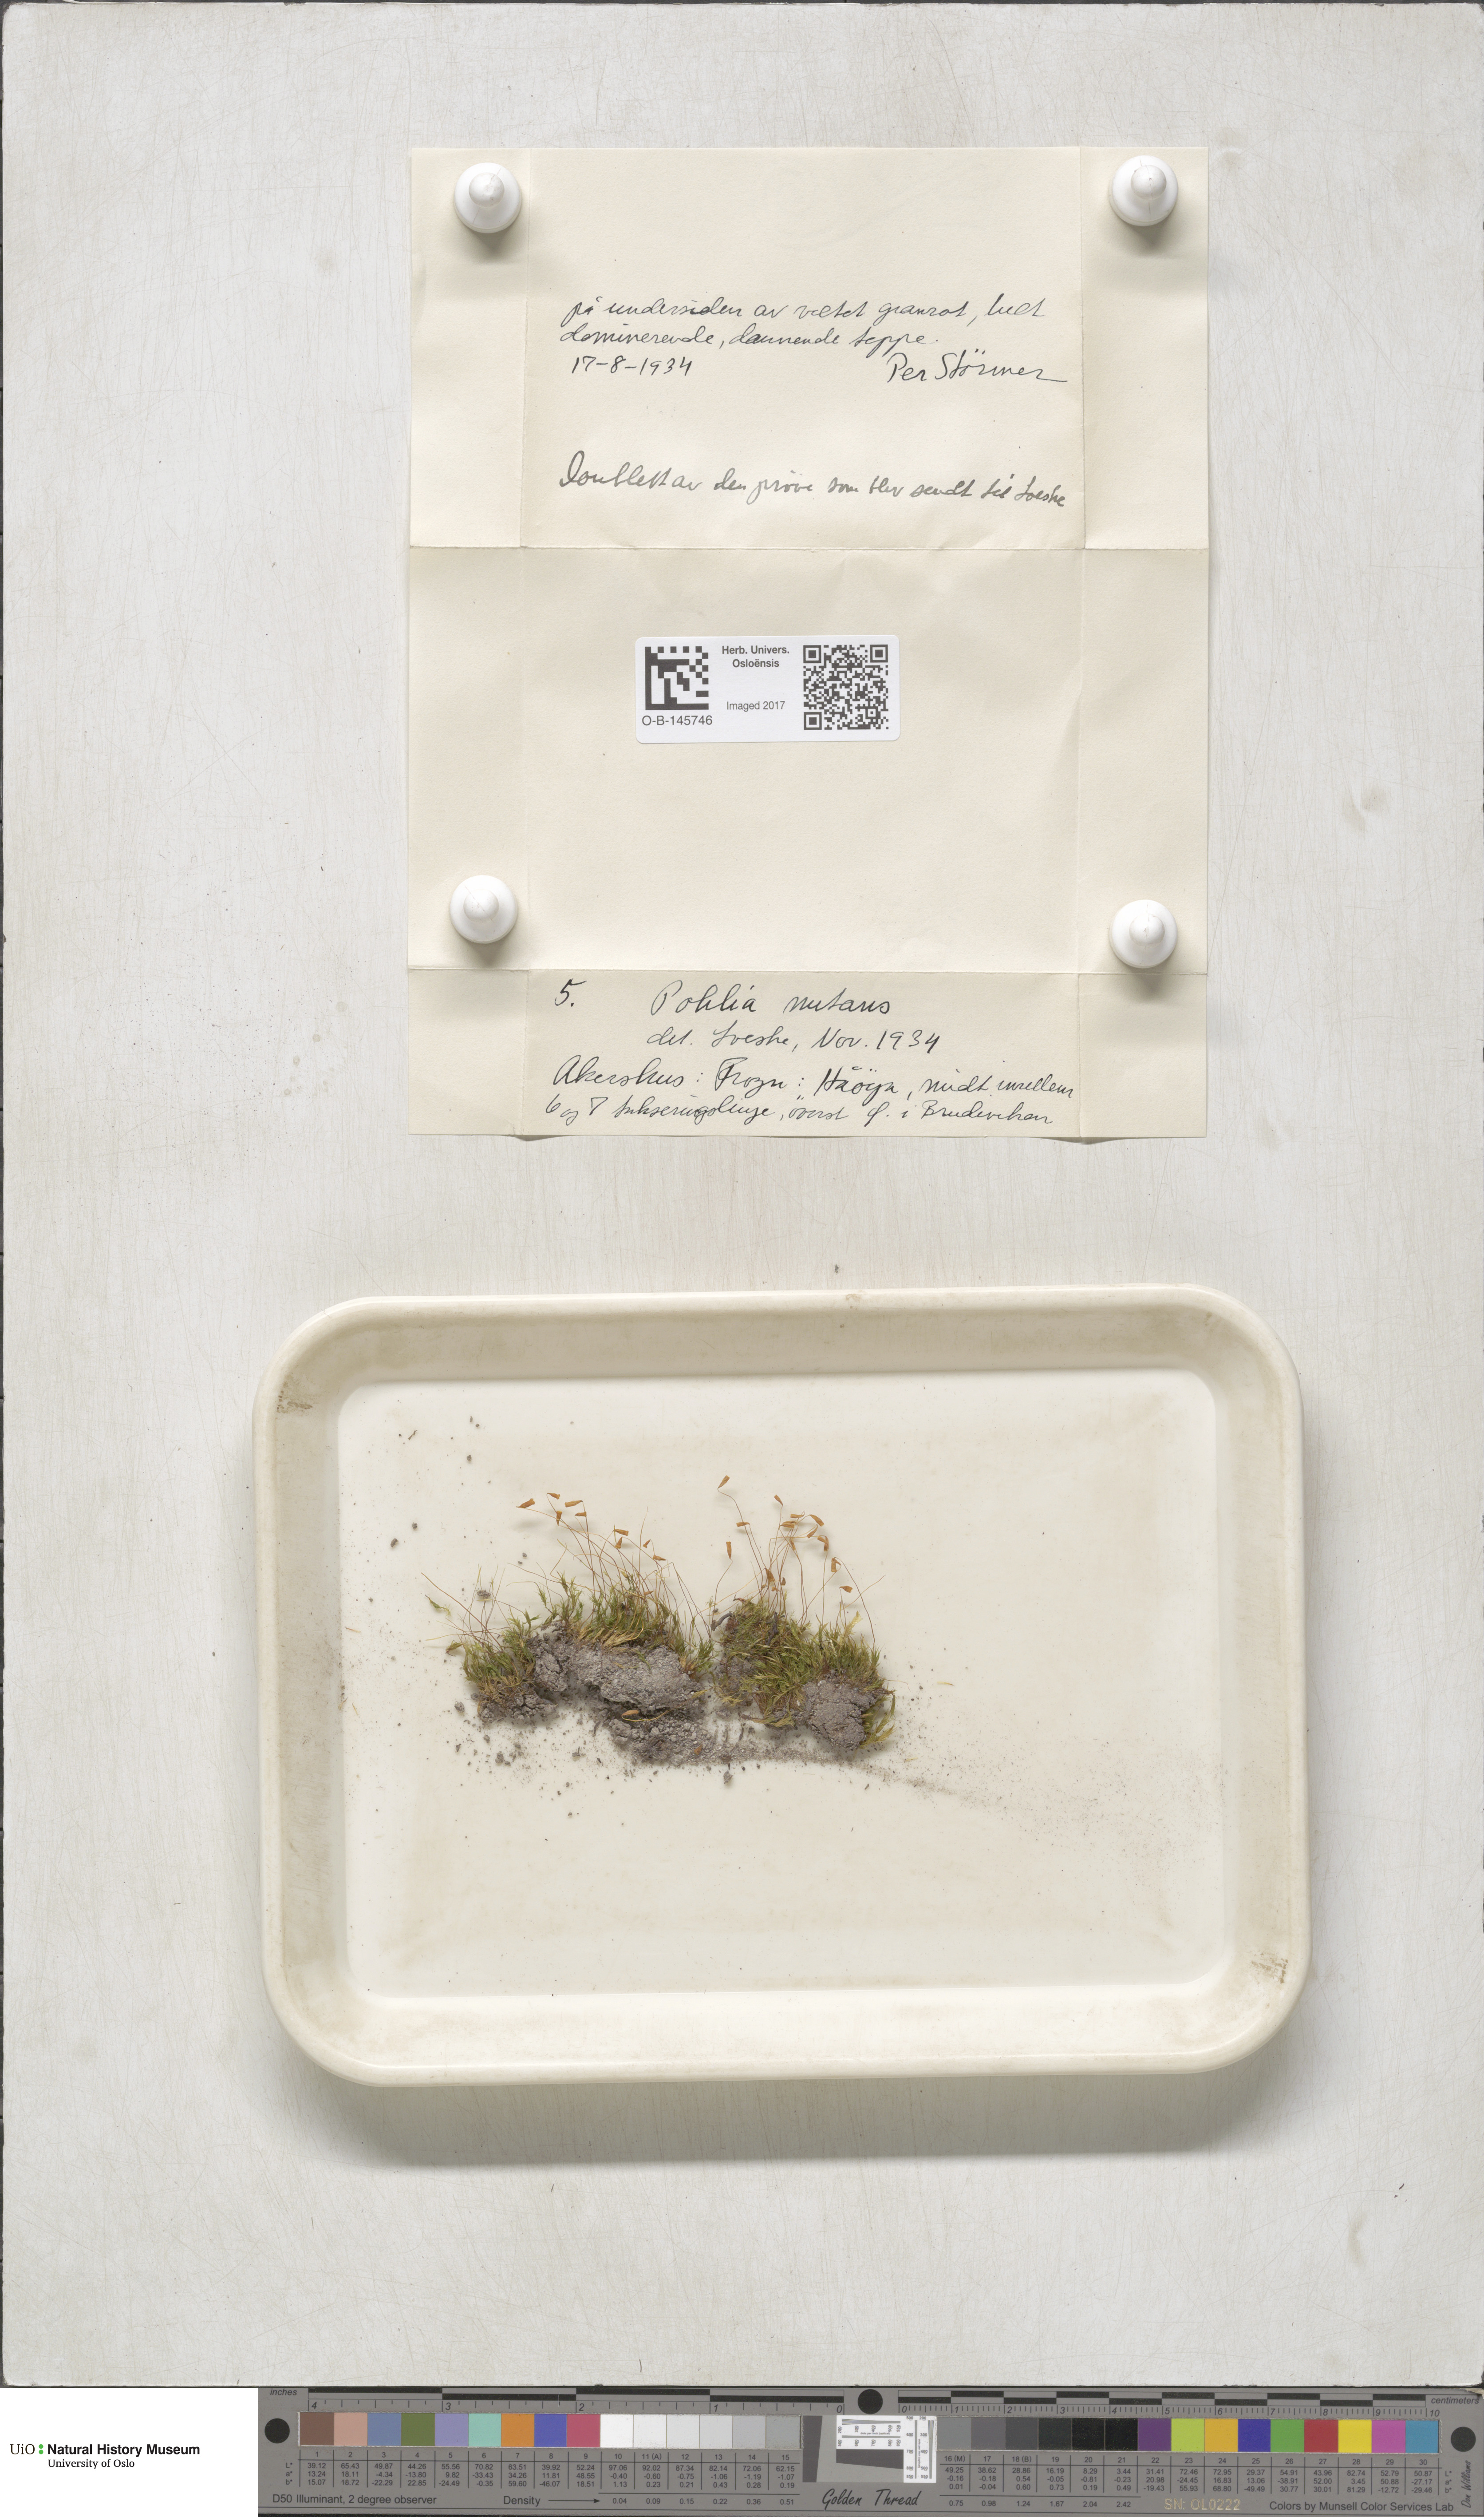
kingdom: Plantae
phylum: Bryophyta
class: Bryopsida
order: Bryales
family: Mniaceae
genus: Pohlia
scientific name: Pohlia nutans
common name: Nodding thread-moss
